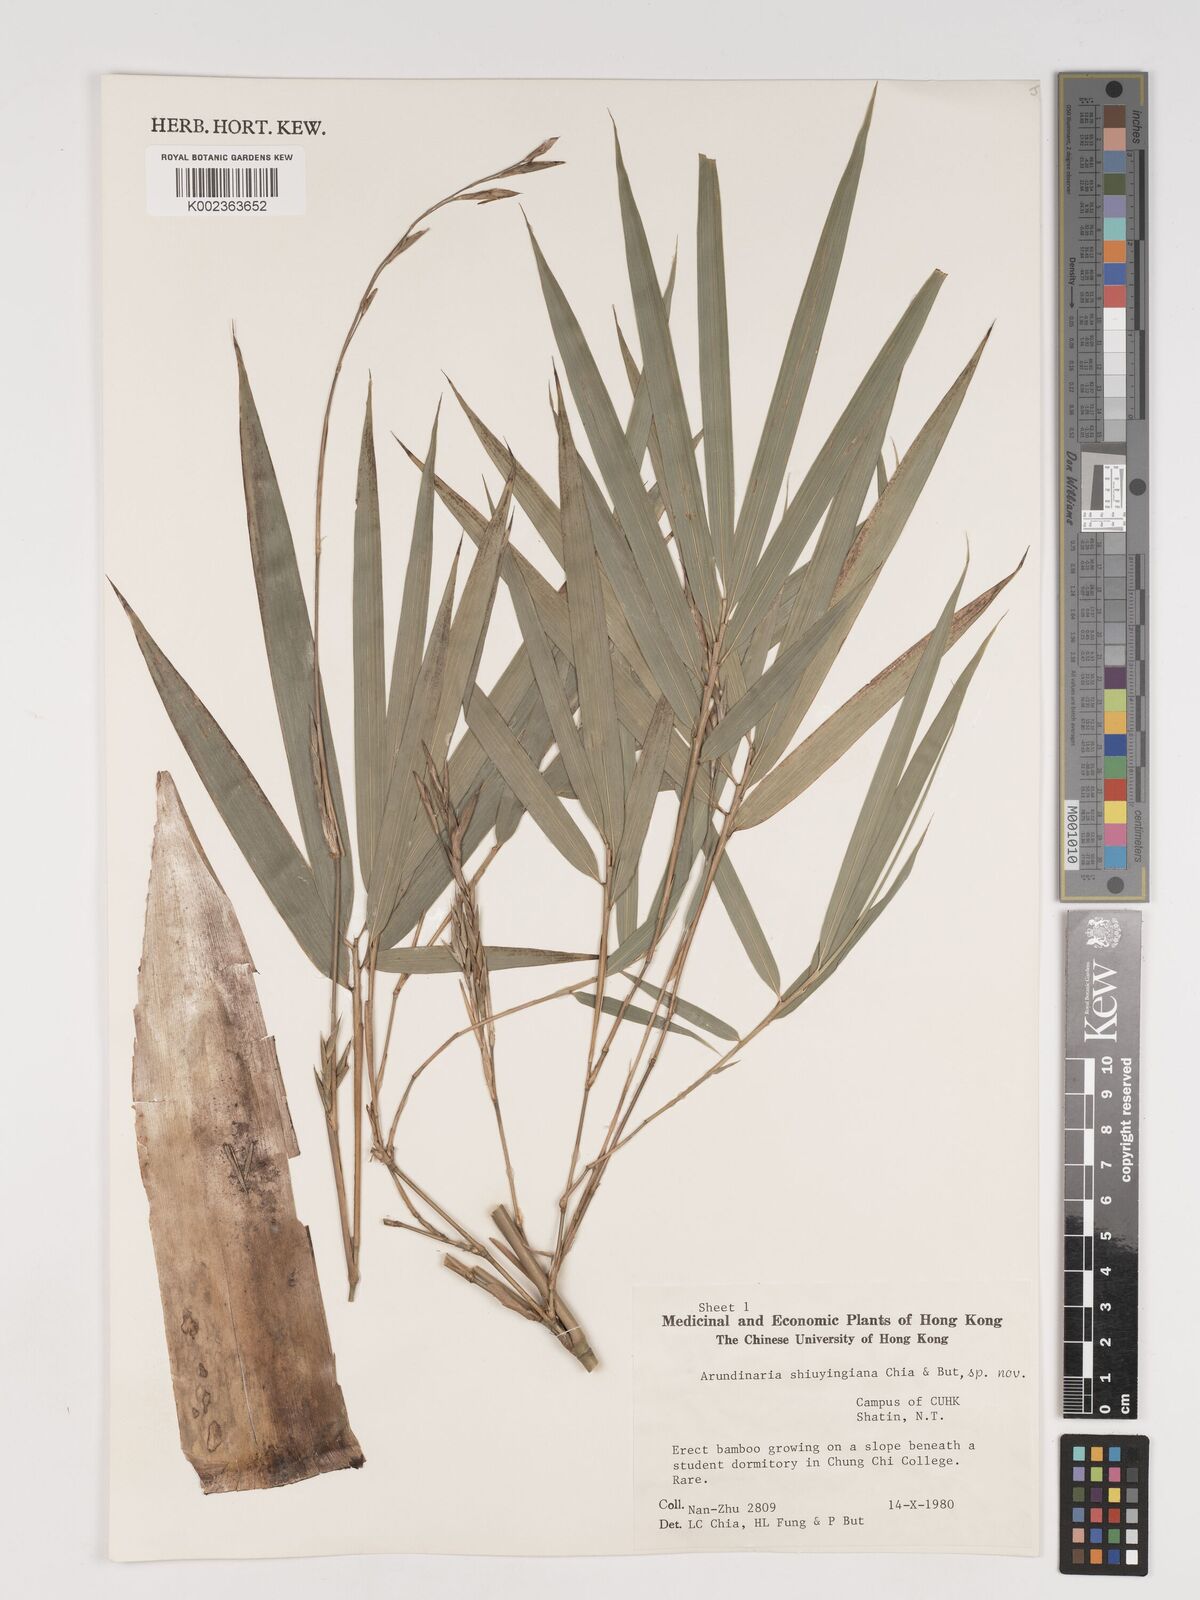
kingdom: Plantae
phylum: Tracheophyta
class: Liliopsida
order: Poales
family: Poaceae
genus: Oligostachyum
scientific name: Oligostachyum shiuyingianum
